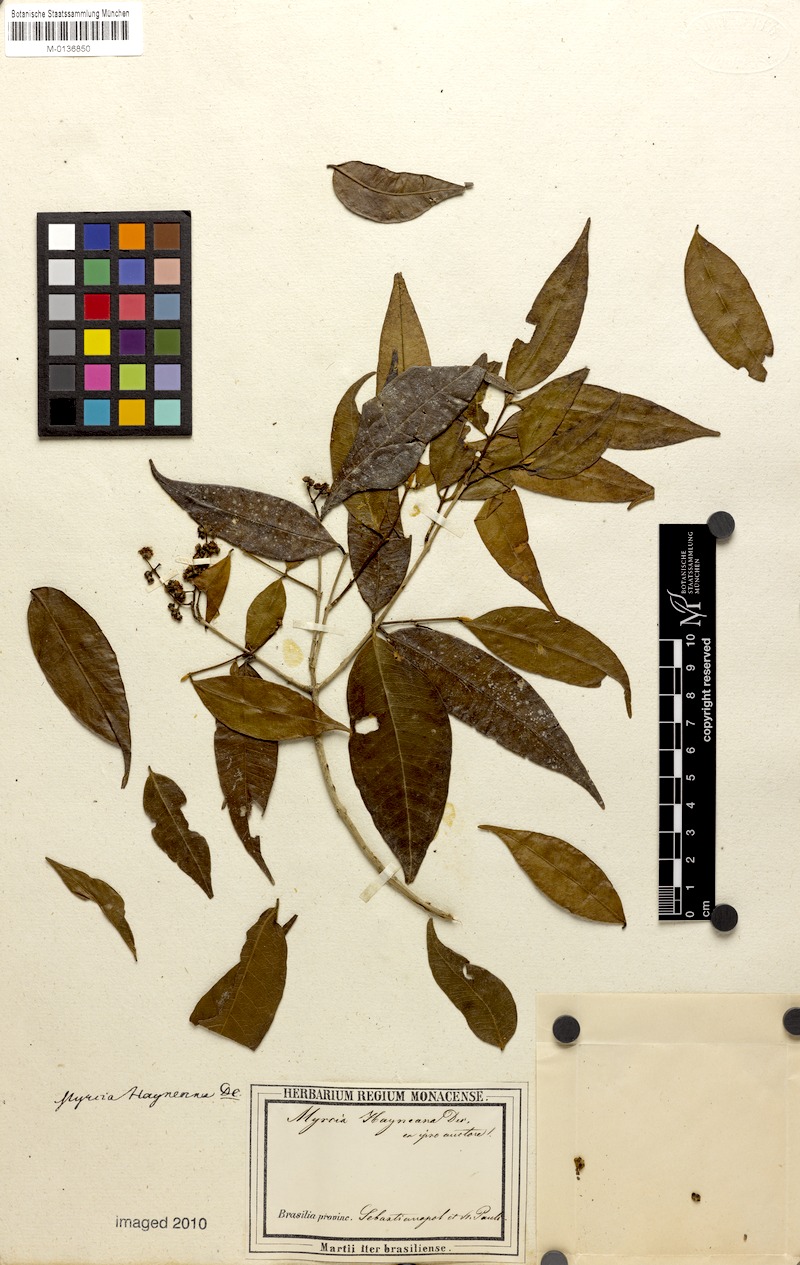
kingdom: Plantae
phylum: Tracheophyta
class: Magnoliopsida
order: Myrtales
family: Myrtaceae
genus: Myrcia
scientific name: Myrcia splendens
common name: Surinam cherry
